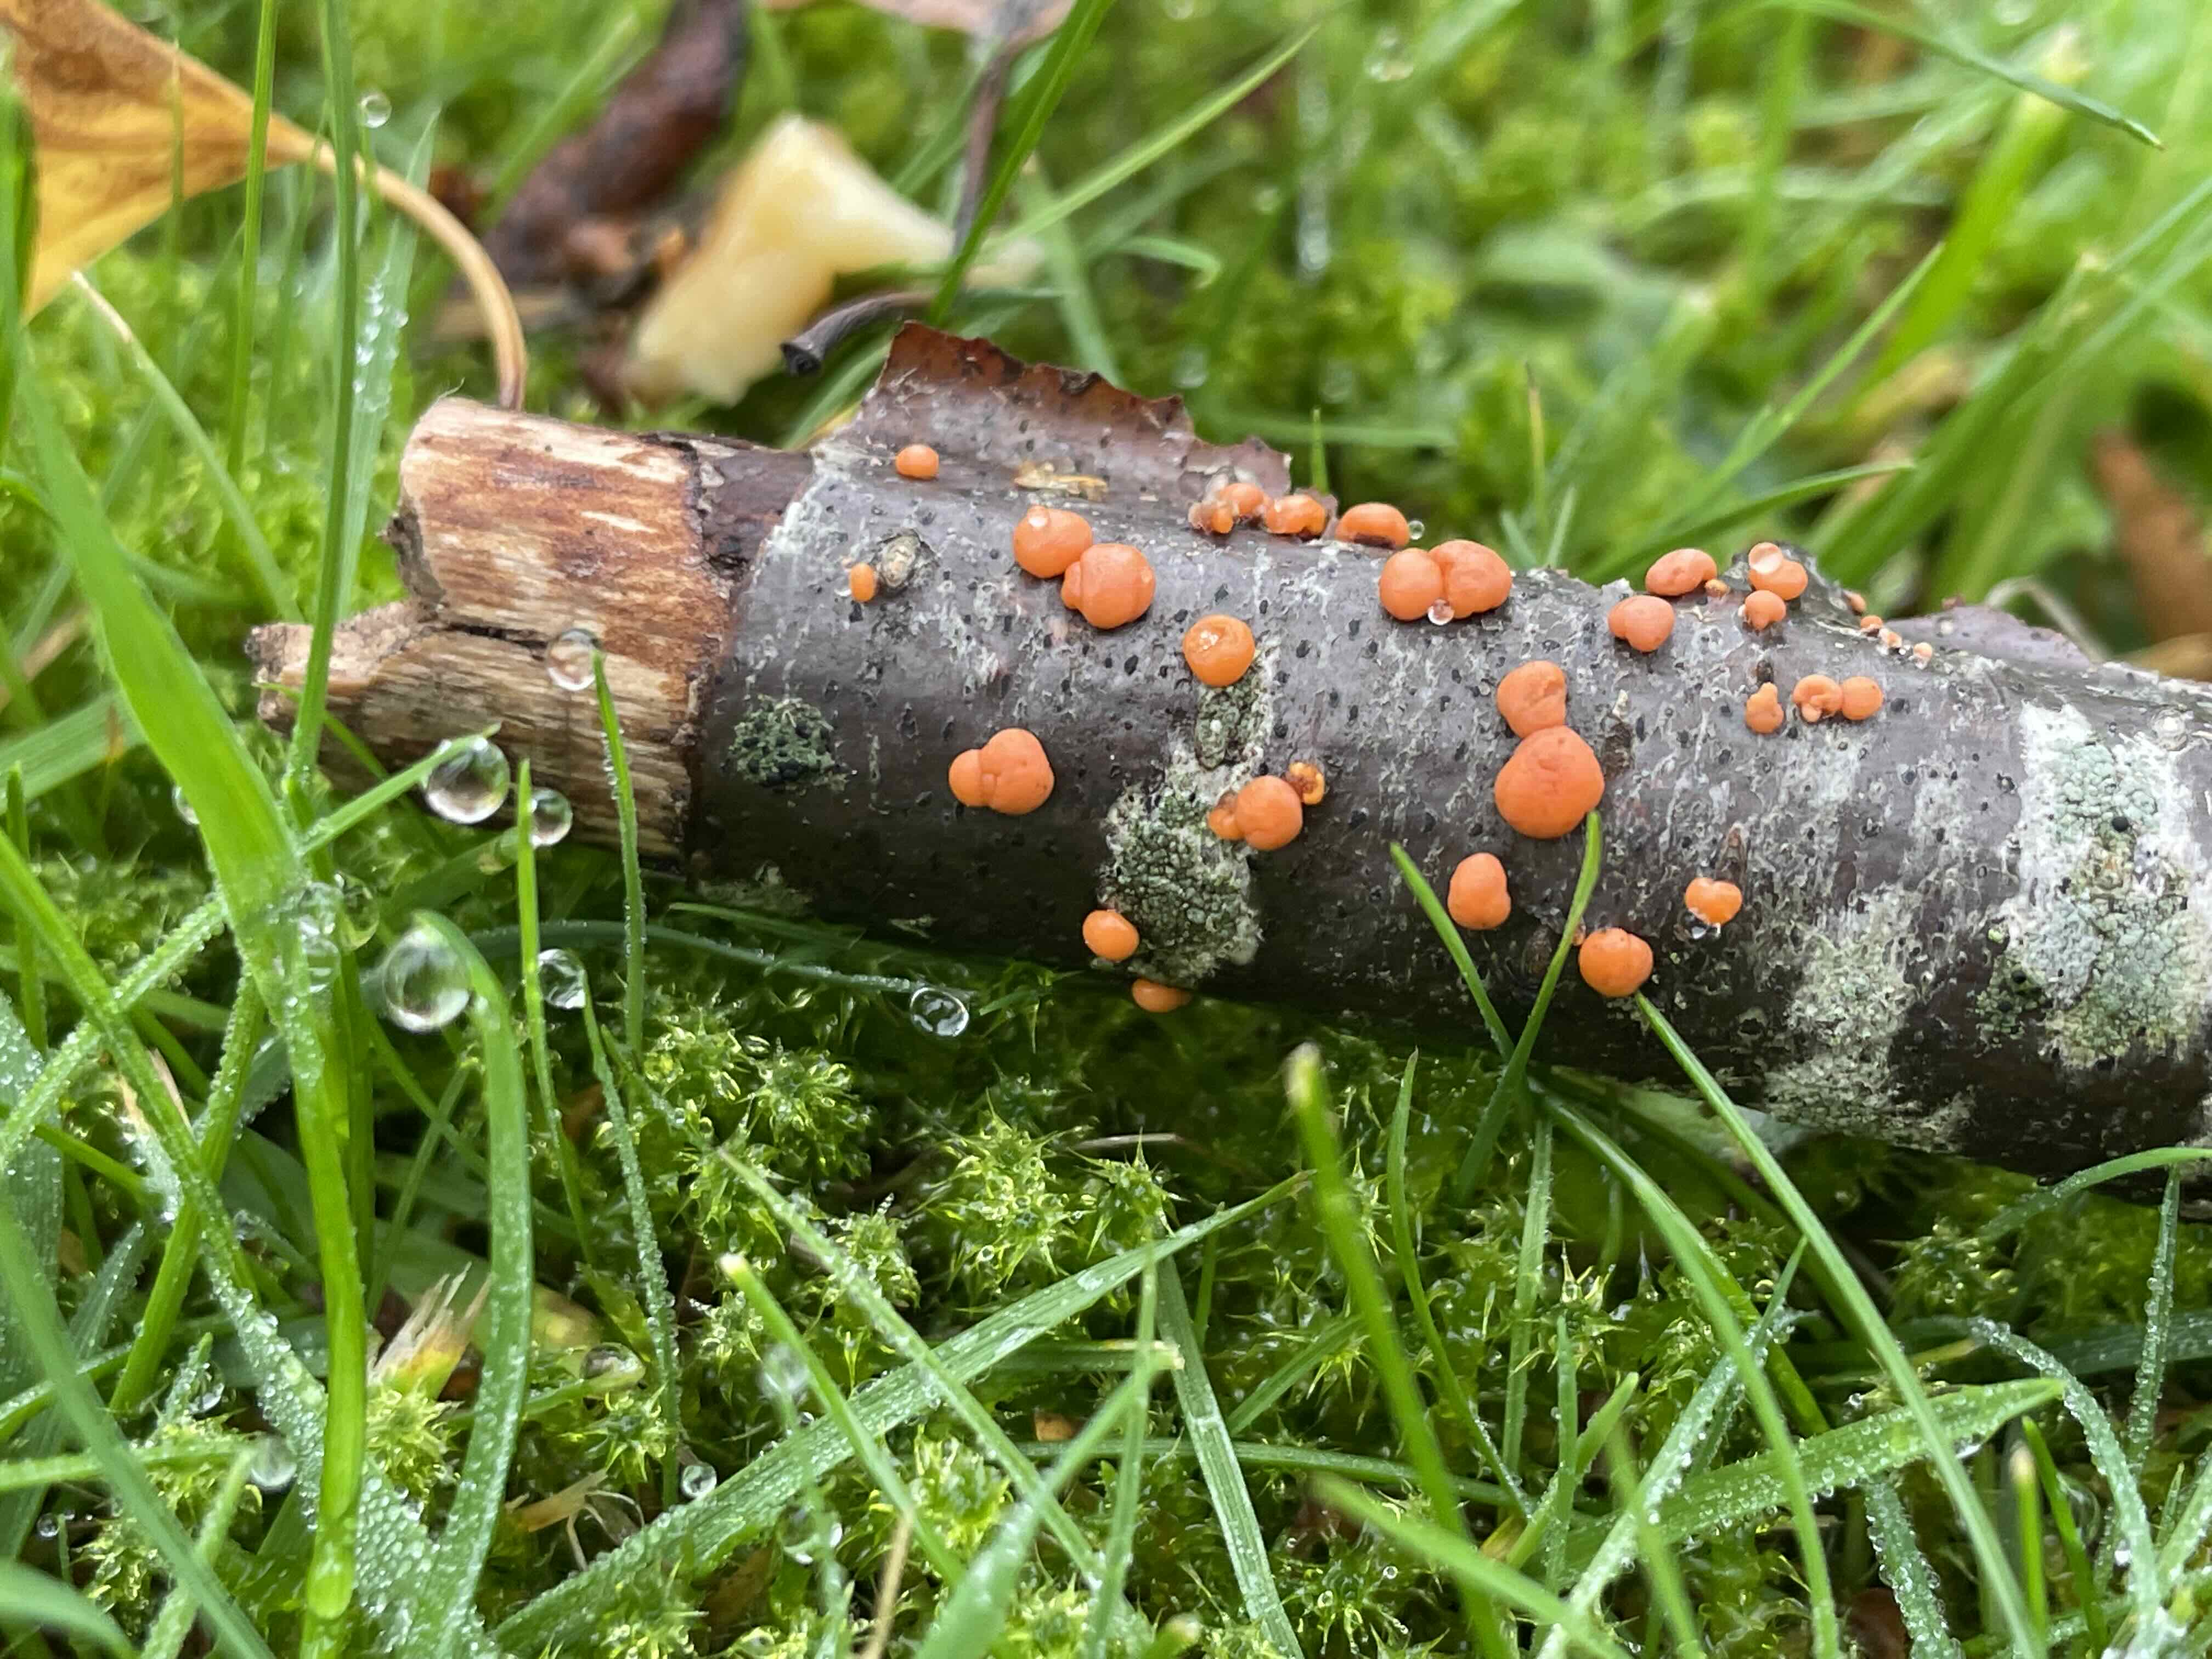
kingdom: Fungi
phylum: Ascomycota
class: Sordariomycetes
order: Hypocreales
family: Nectriaceae
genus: Nectria
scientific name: Nectria cinnabarina
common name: almindelig cinnobersvamp
